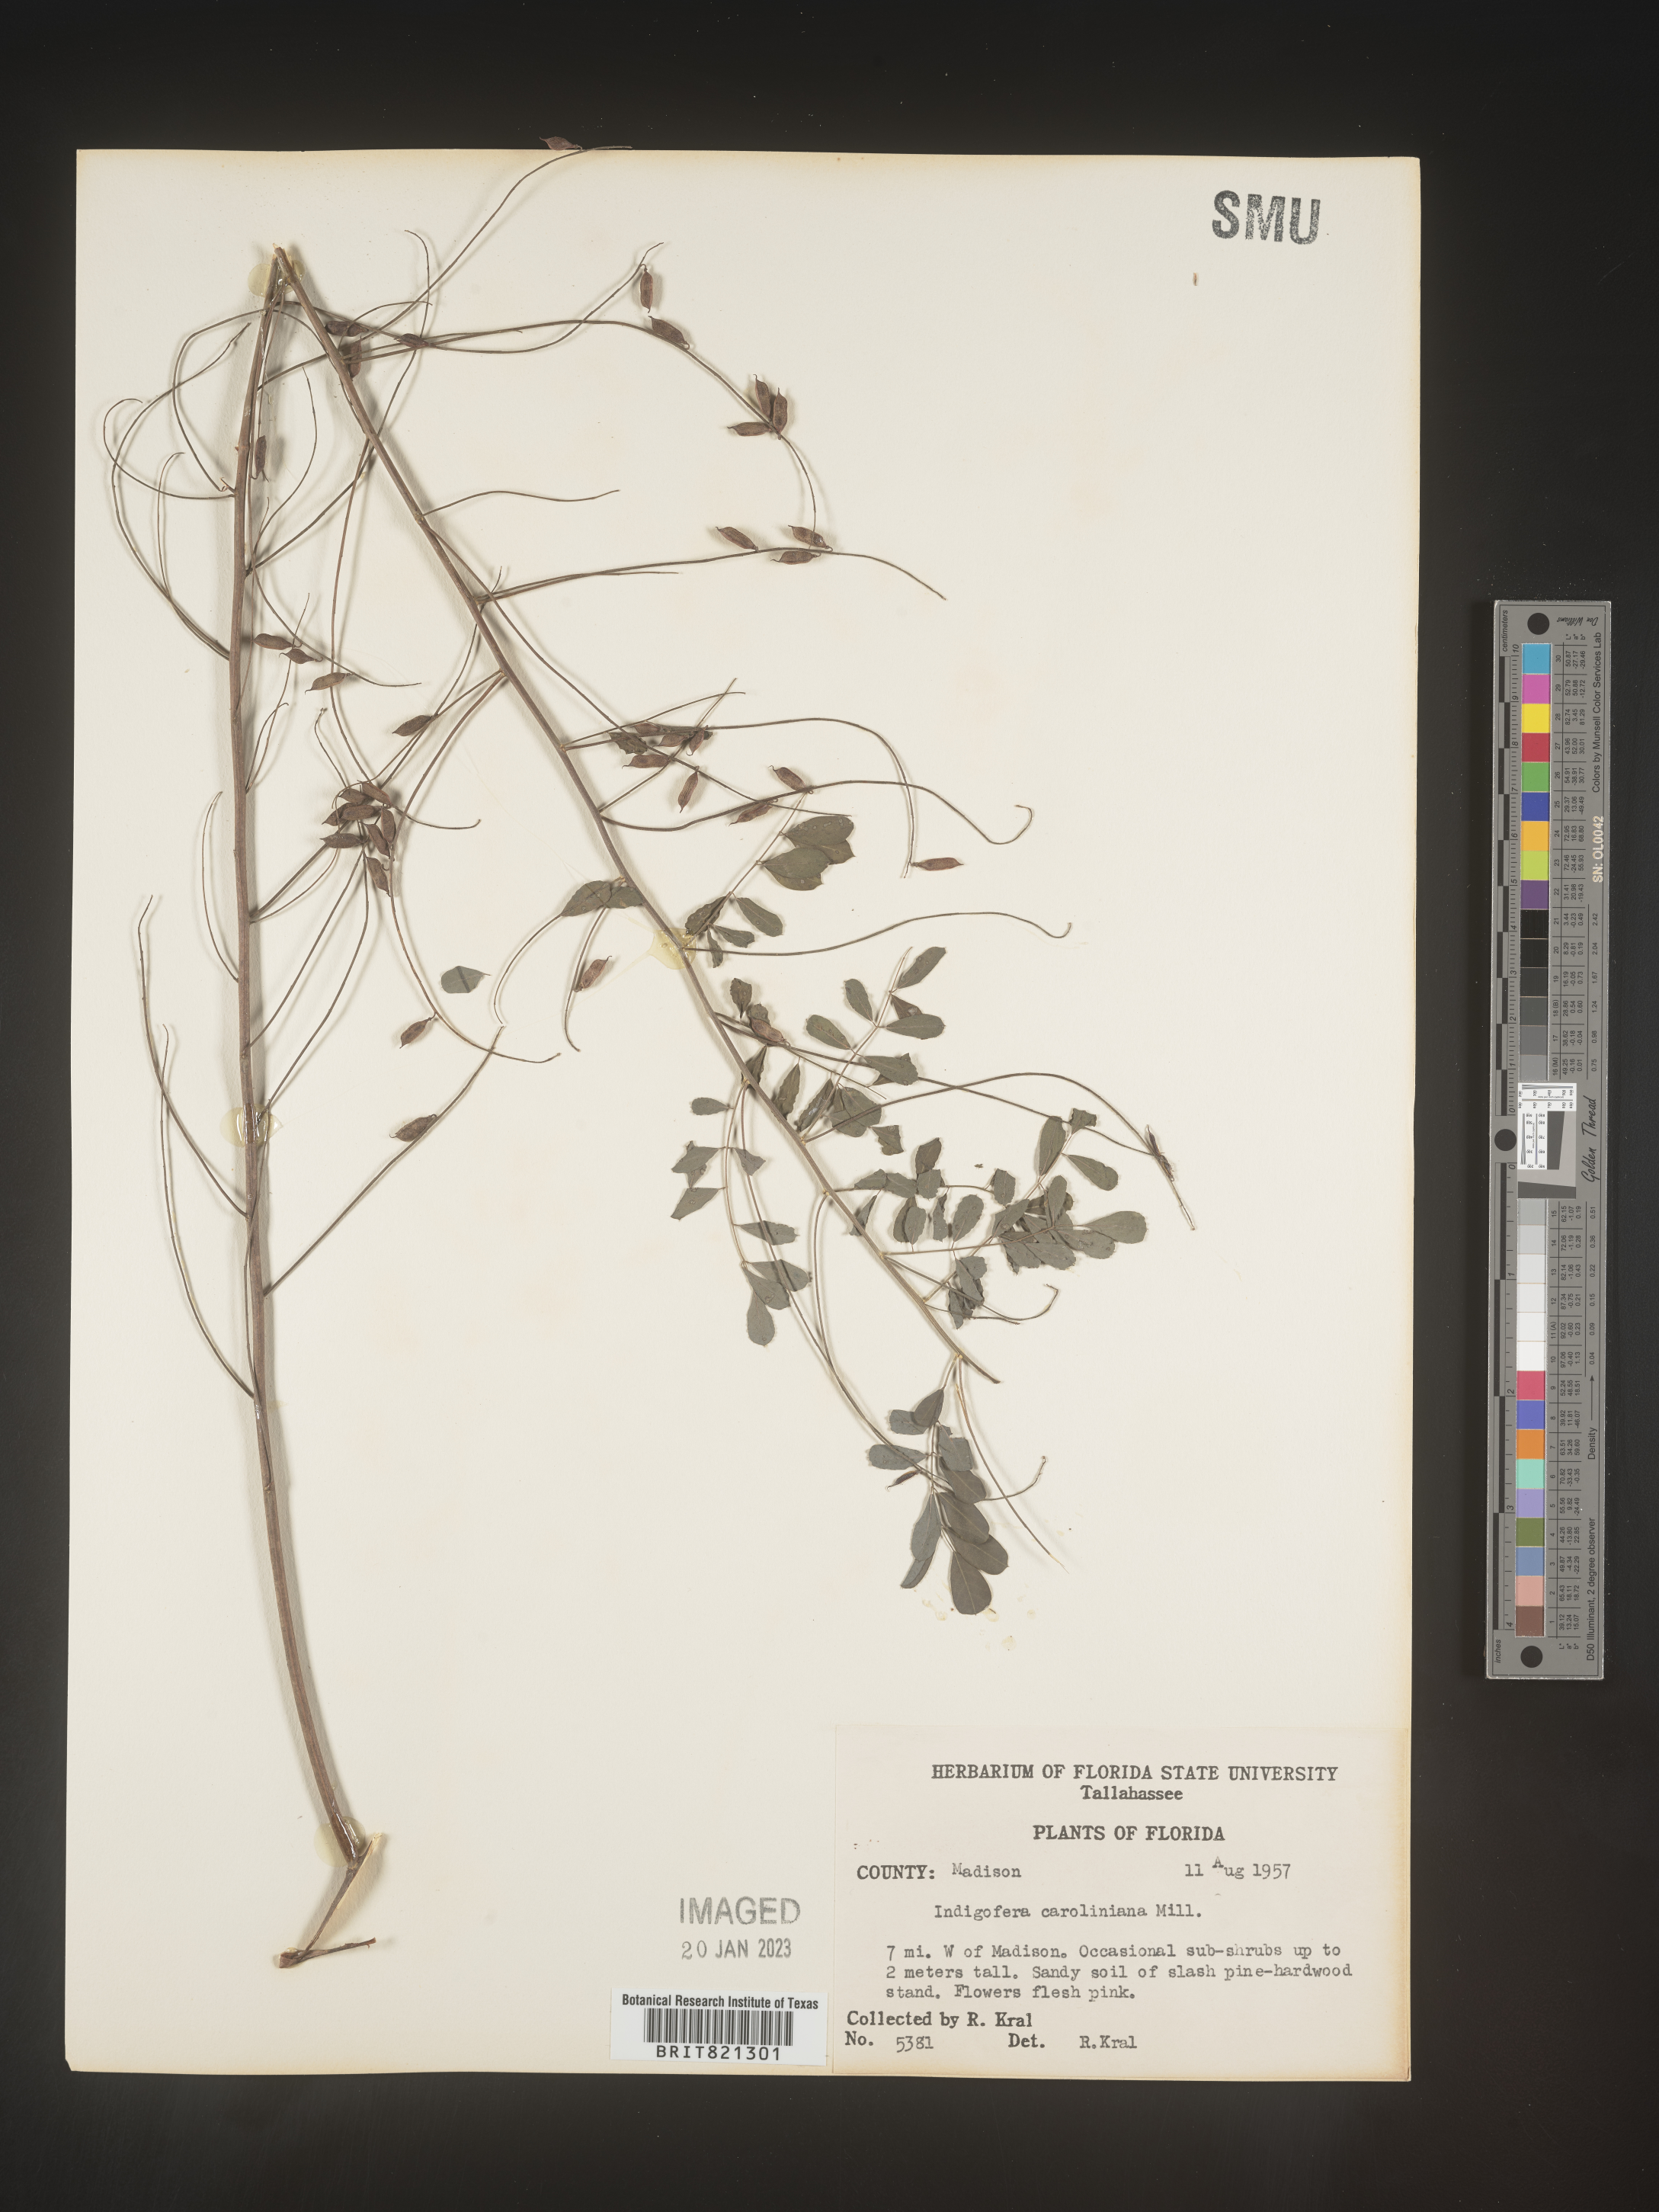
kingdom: Plantae
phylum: Tracheophyta
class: Magnoliopsida
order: Fabales
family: Fabaceae
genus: Indigofera
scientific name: Indigofera
